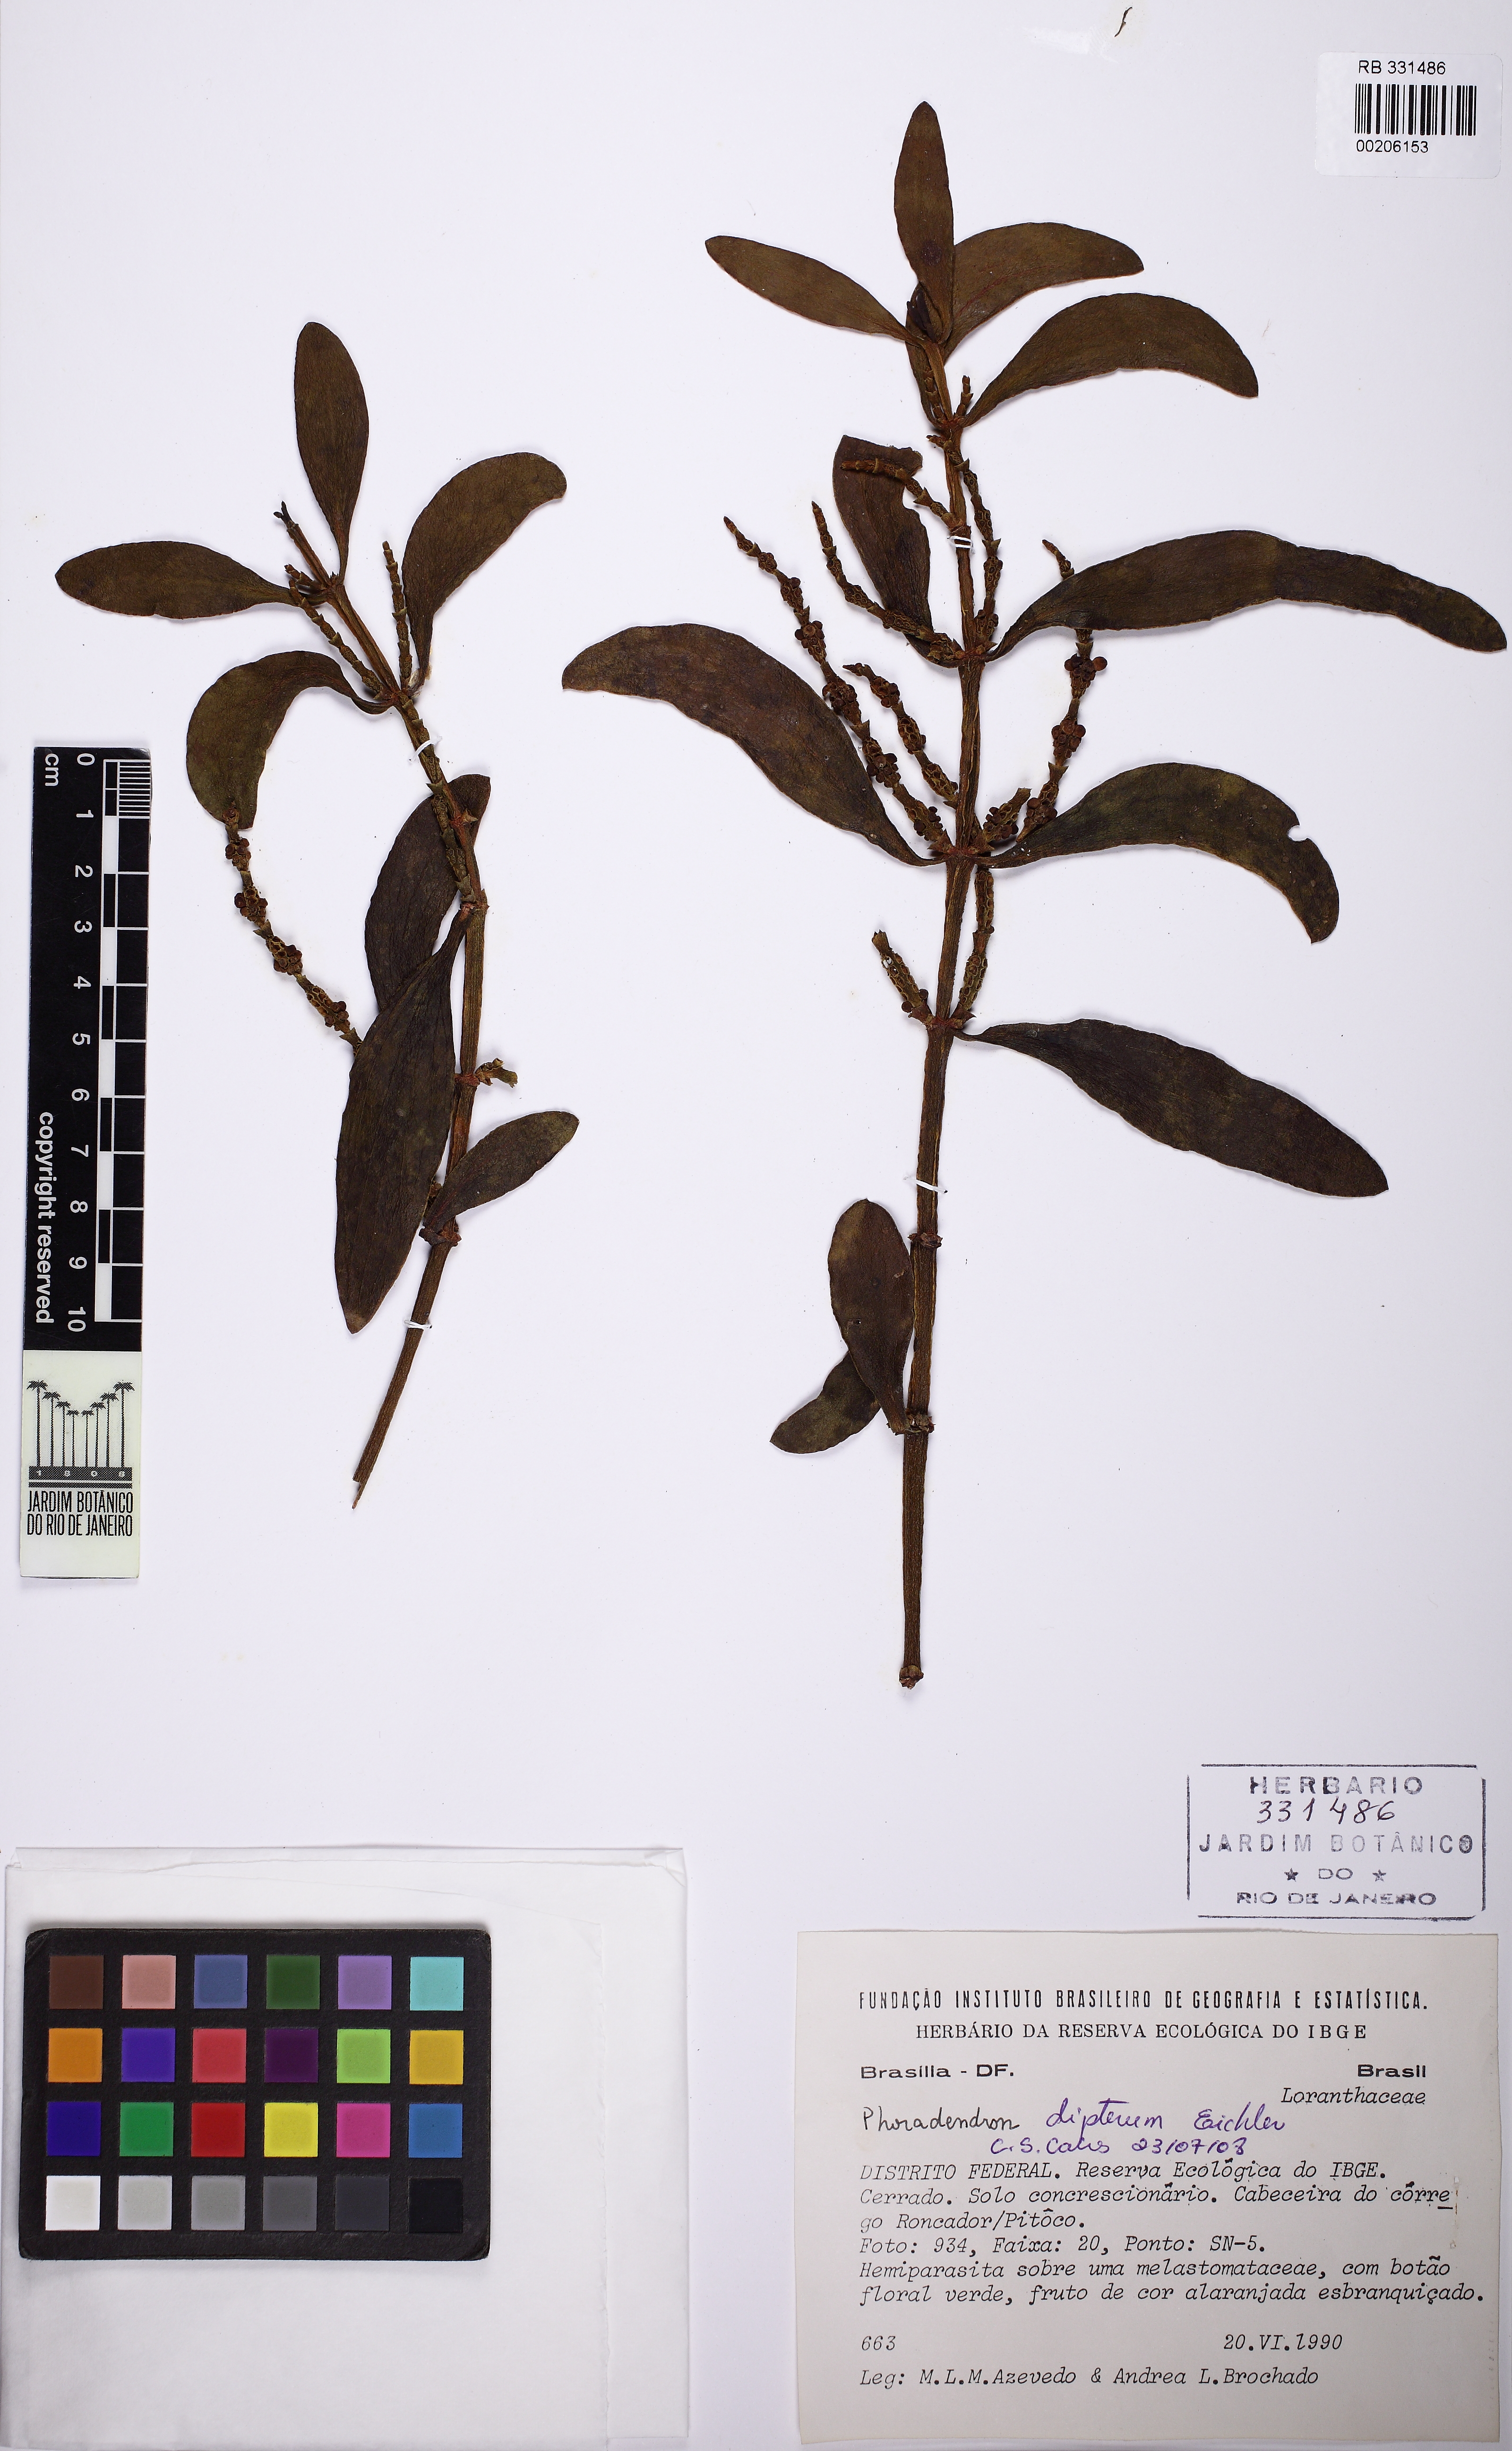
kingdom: Plantae
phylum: Tracheophyta
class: Magnoliopsida
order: Santalales
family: Viscaceae
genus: Phoradendron
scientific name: Phoradendron dipterum
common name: Fourpart mistletoe
